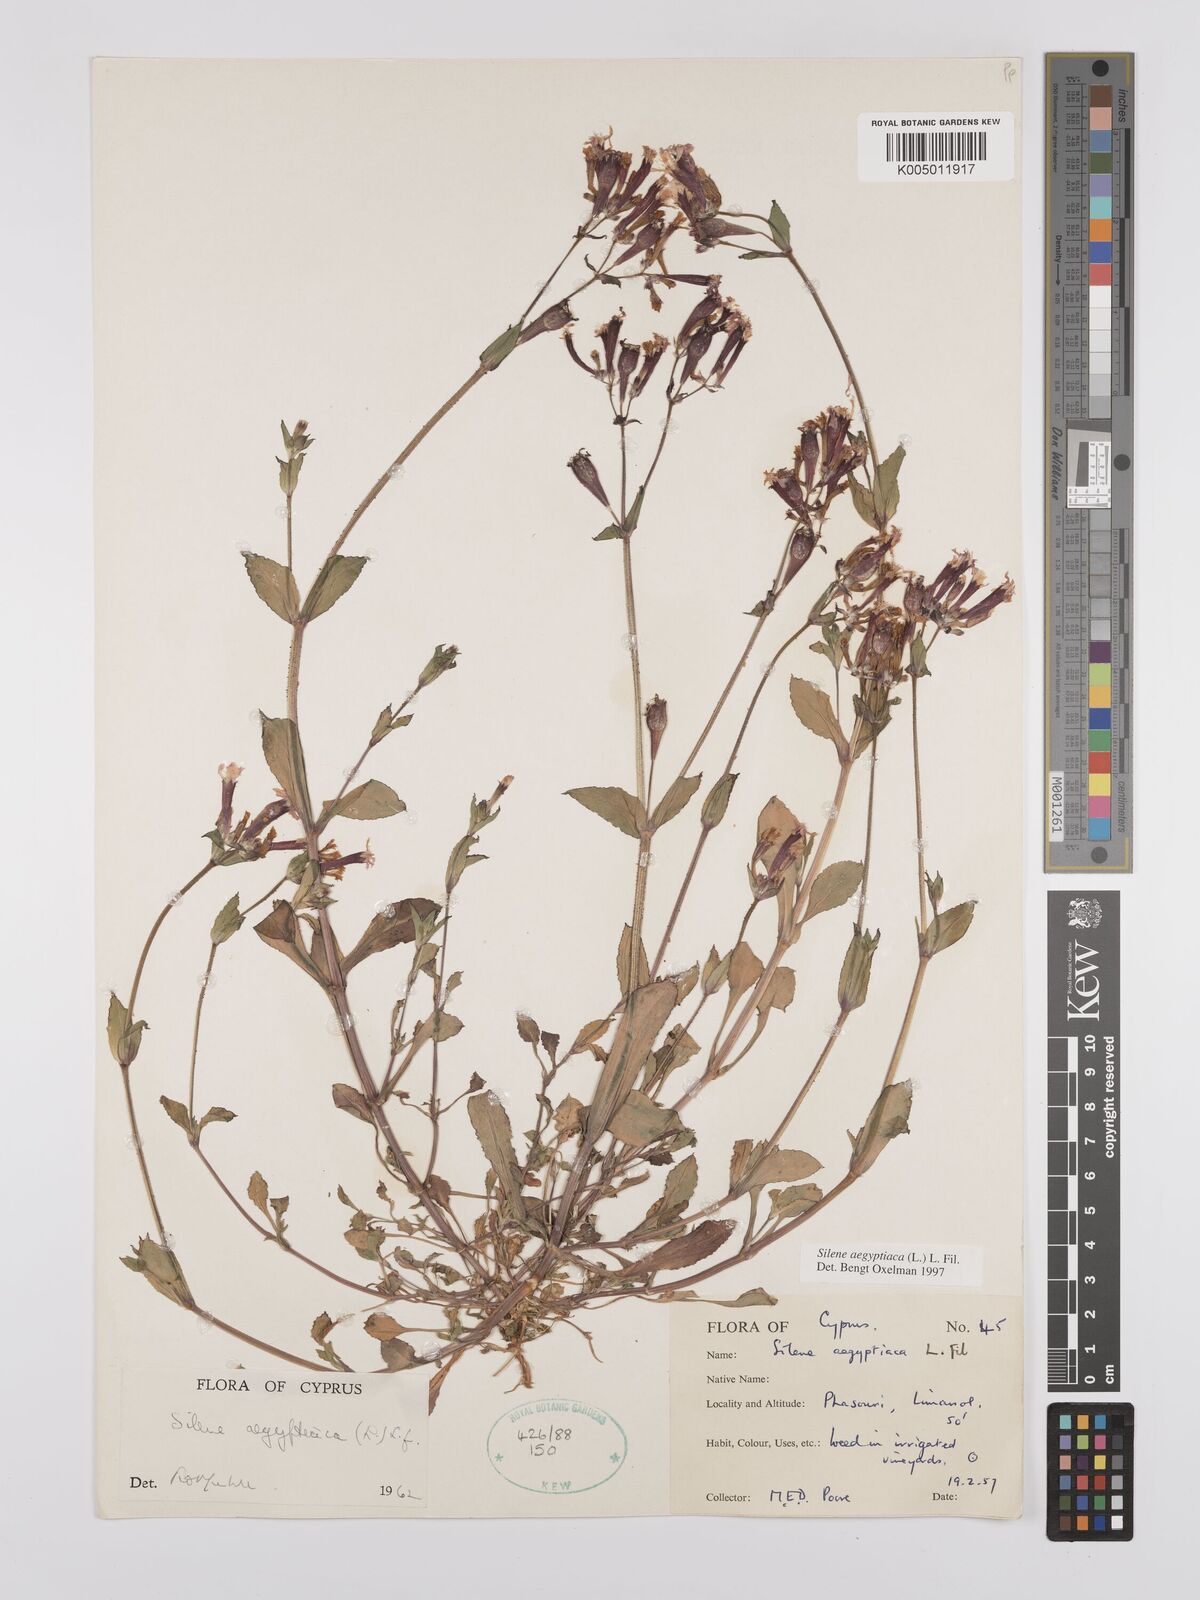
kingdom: Plantae
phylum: Tracheophyta
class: Magnoliopsida
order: Caryophyllales
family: Caryophyllaceae
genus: Silene
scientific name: Silene aegyptiaca
